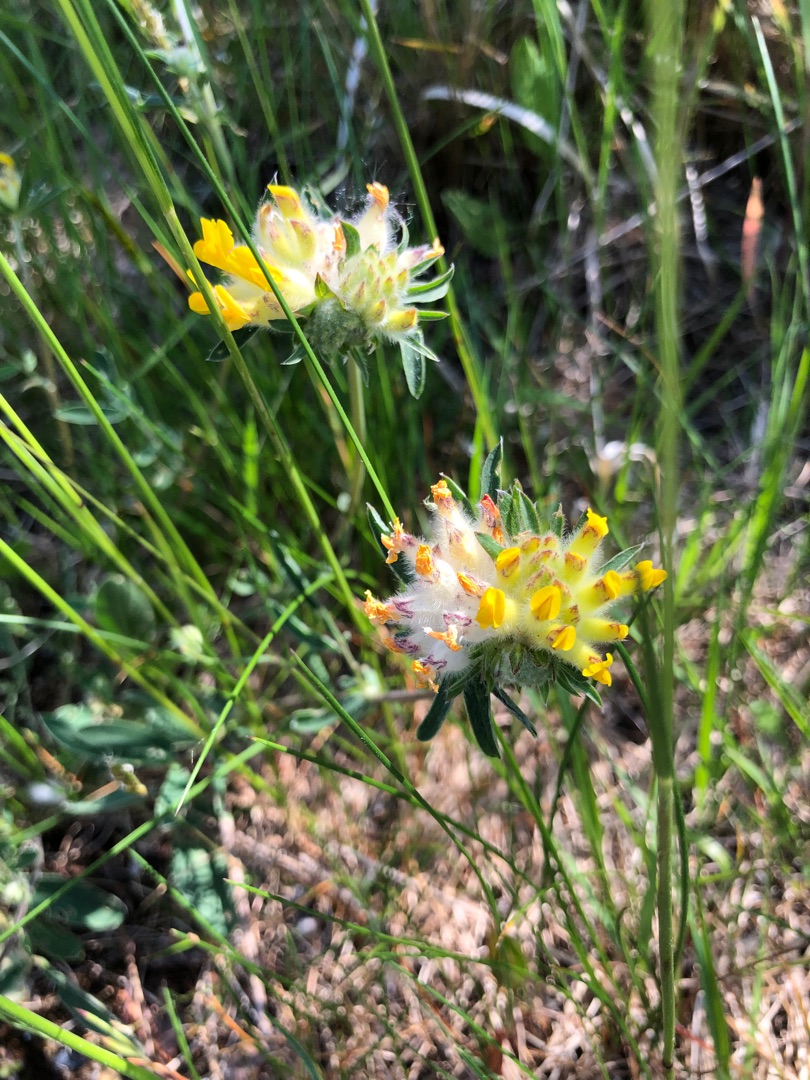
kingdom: Plantae
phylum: Tracheophyta
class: Magnoliopsida
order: Fabales
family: Fabaceae
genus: Anthyllis
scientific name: Anthyllis vulneraria
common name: Rundbælg
